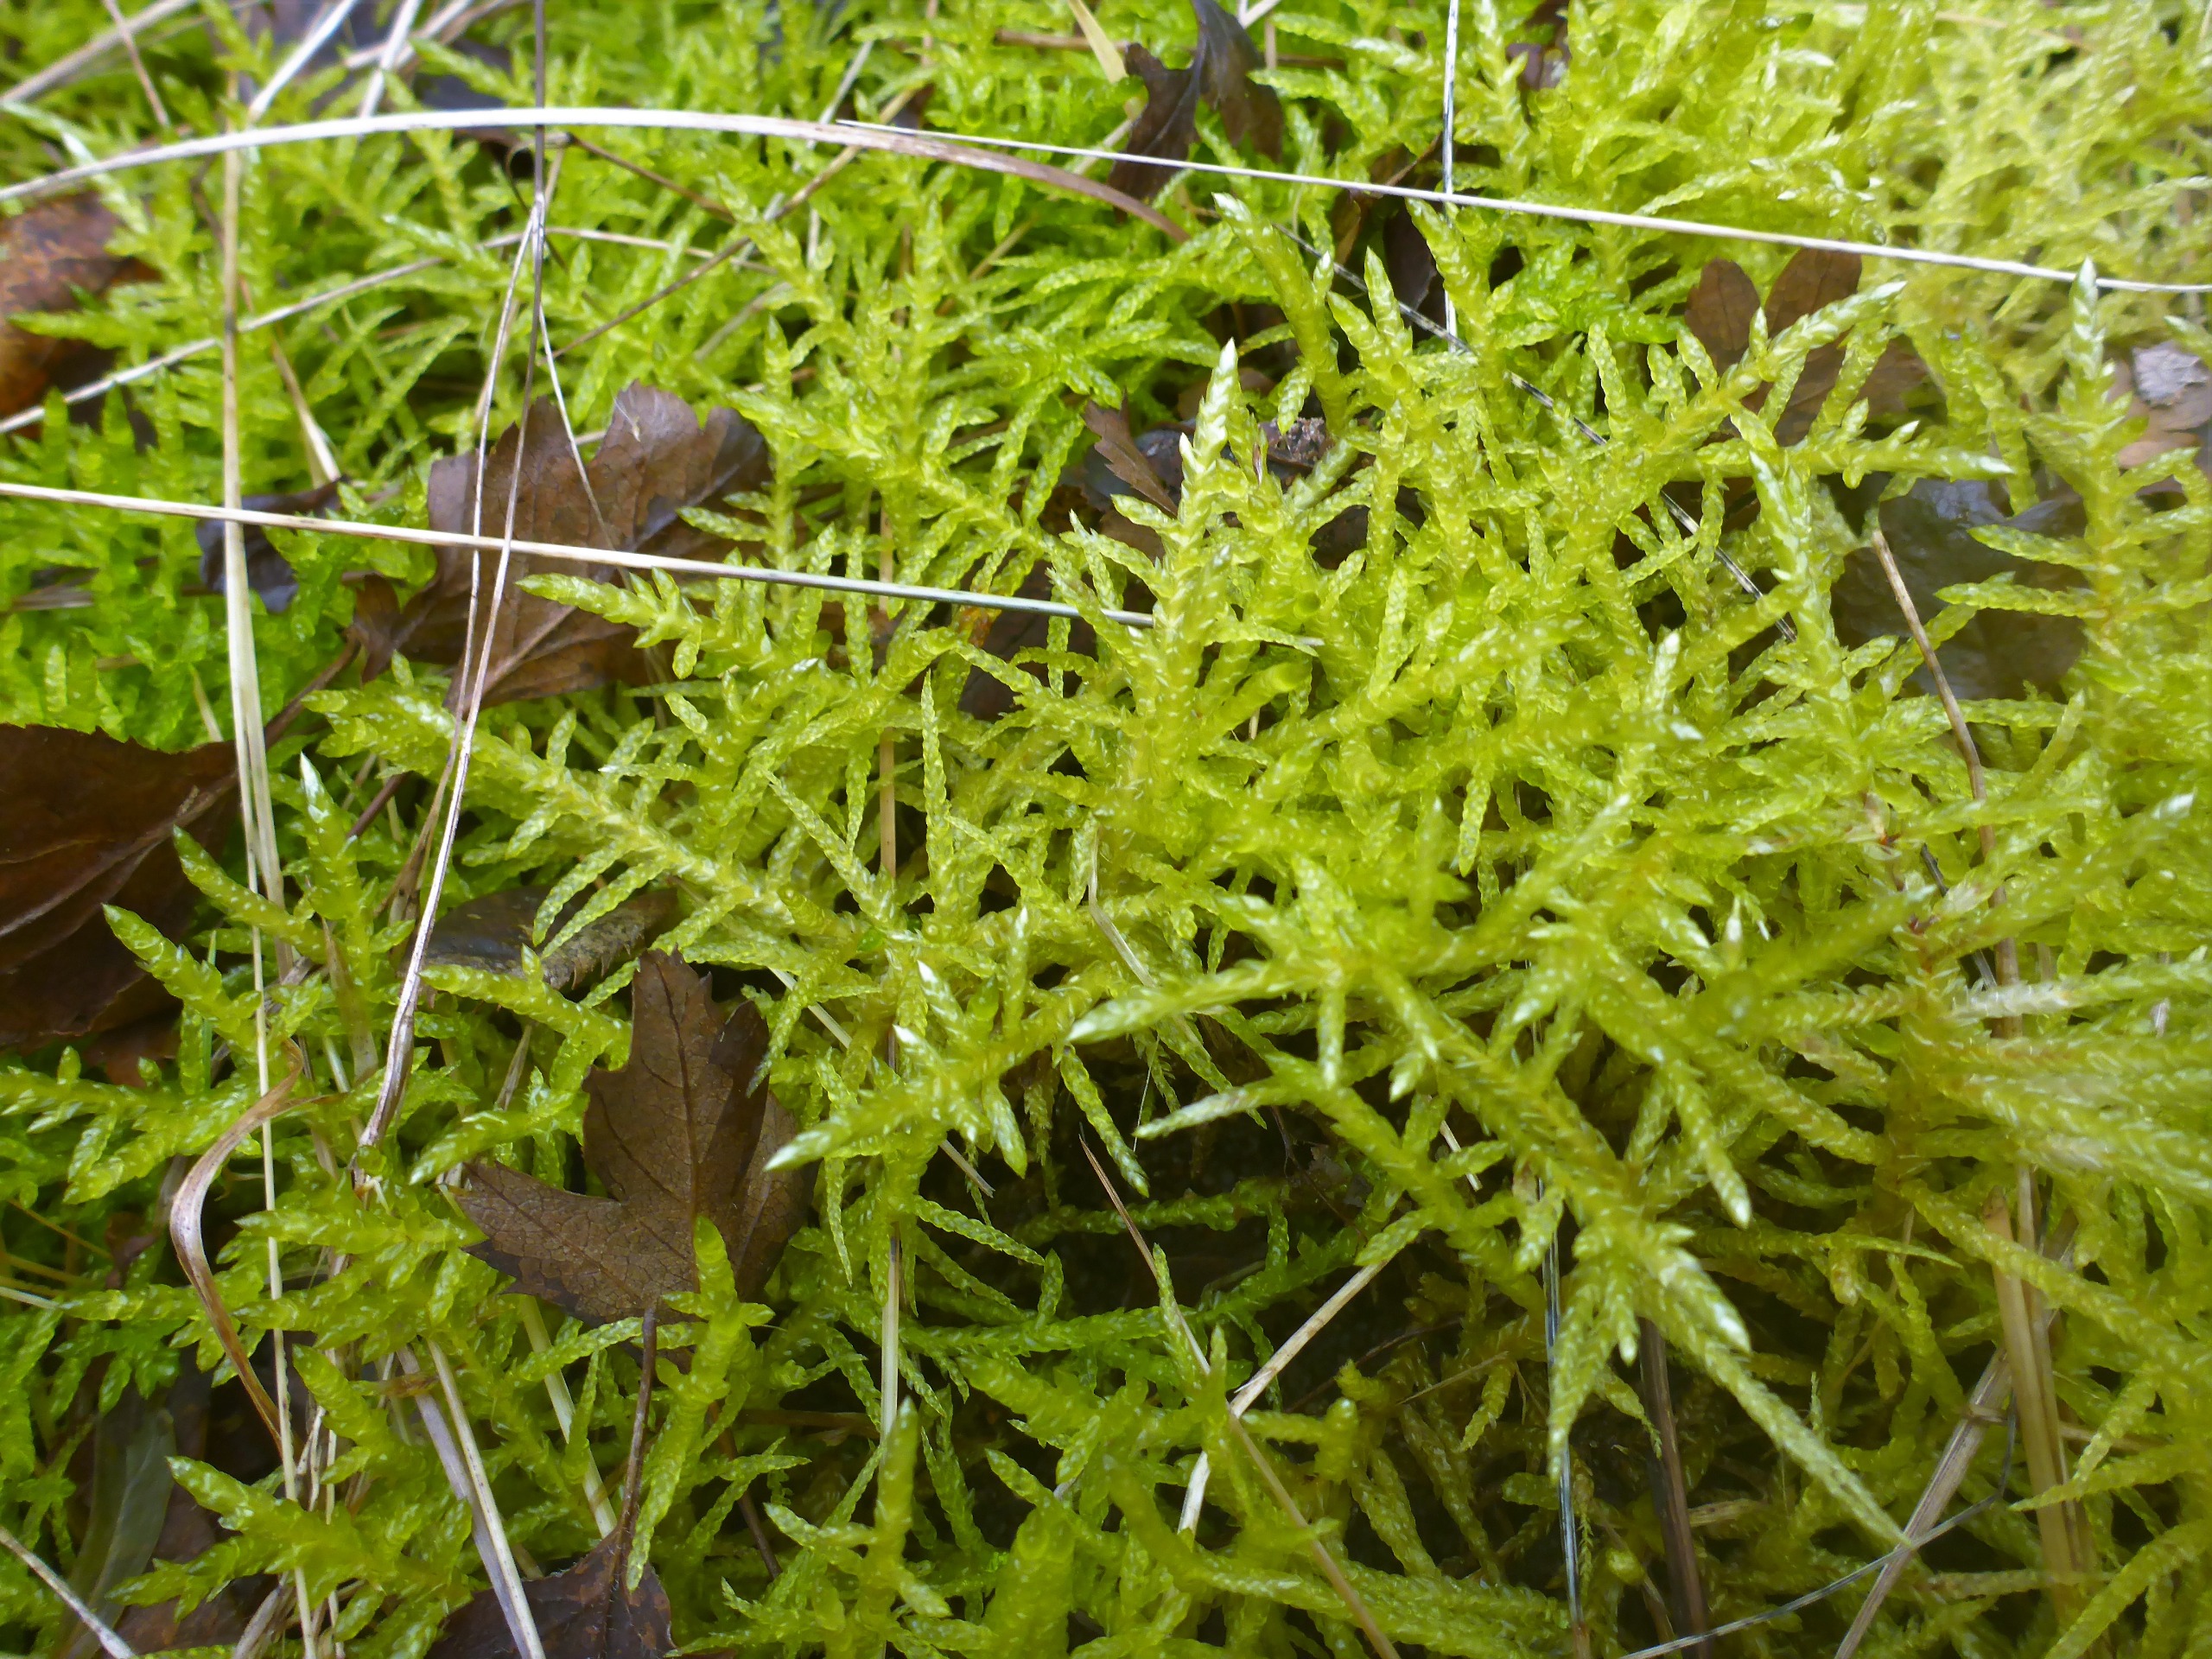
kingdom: Plantae
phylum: Bryophyta
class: Bryopsida
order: Hypnales
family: Brachytheciaceae
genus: Pseudoscleropodium
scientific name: Pseudoscleropodium purum
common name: Hulbladet fedtmos
